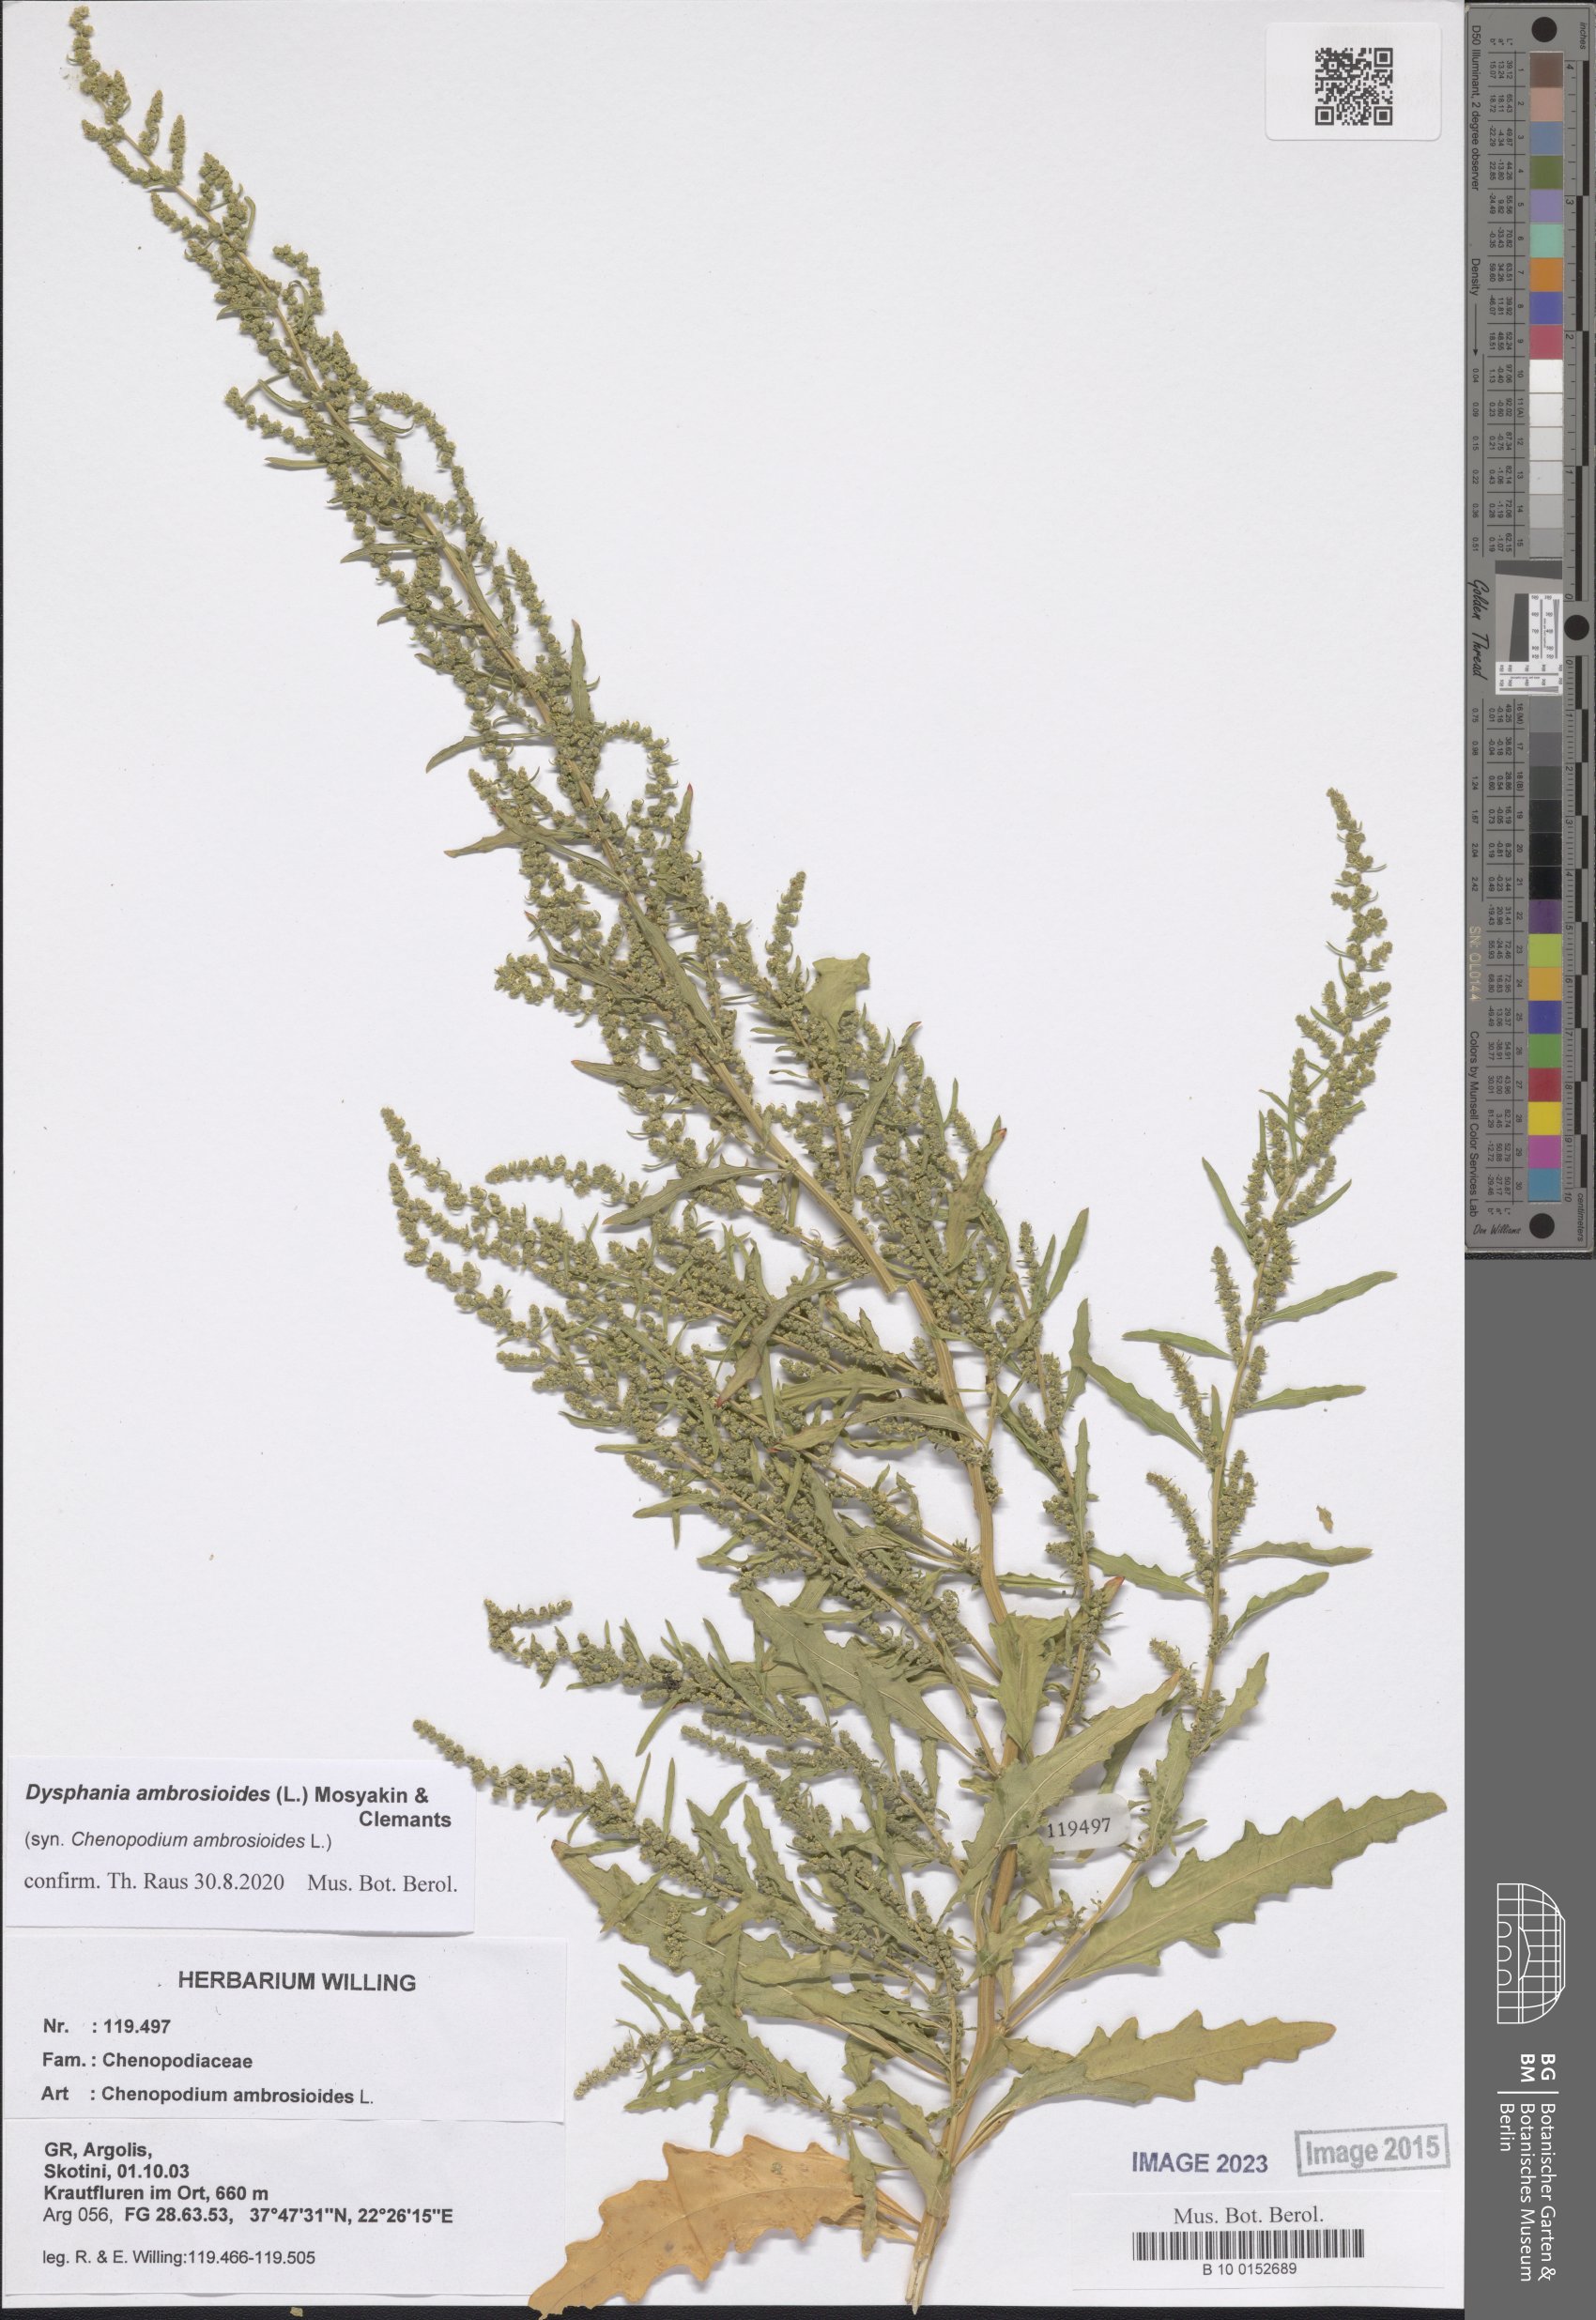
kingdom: Plantae
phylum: Tracheophyta
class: Magnoliopsida
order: Caryophyllales
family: Amaranthaceae
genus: Dysphania
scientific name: Dysphania ambrosioides
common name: Wormseed
